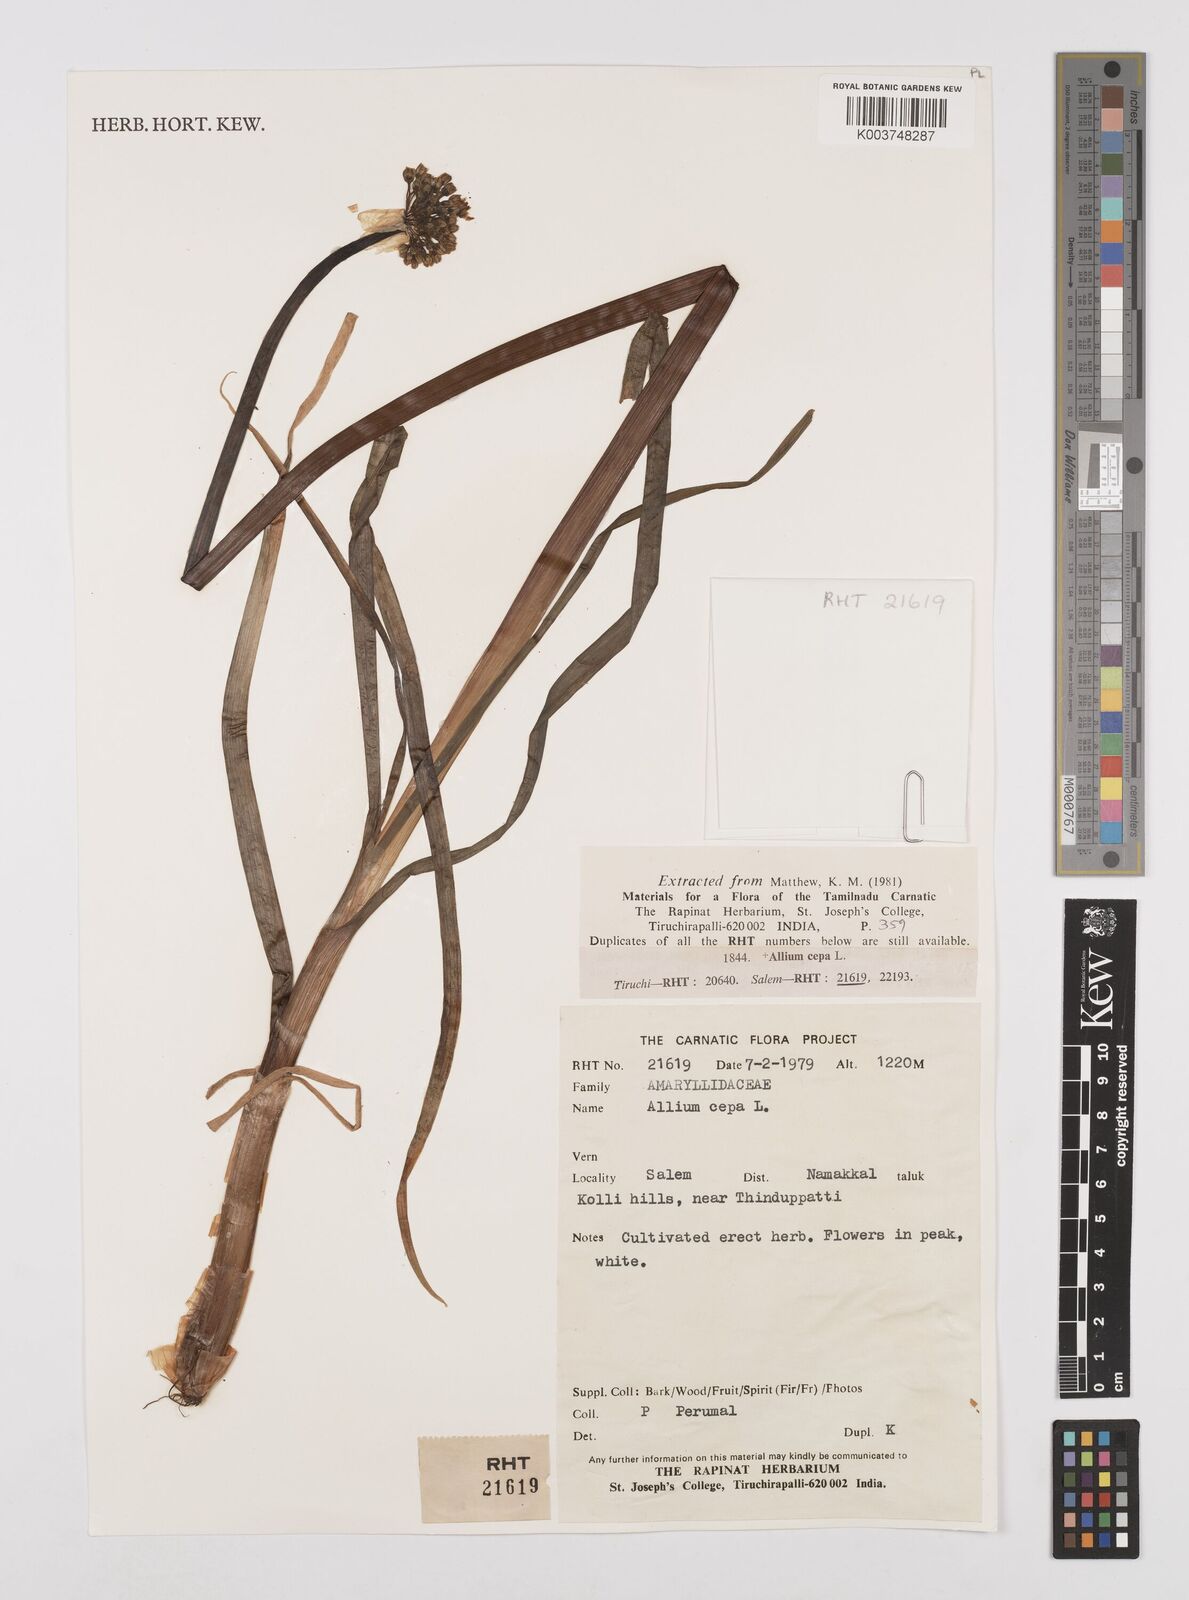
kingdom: Plantae
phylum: Tracheophyta
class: Liliopsida
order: Asparagales
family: Amaryllidaceae
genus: Allium
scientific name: Allium cepa
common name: Onion
